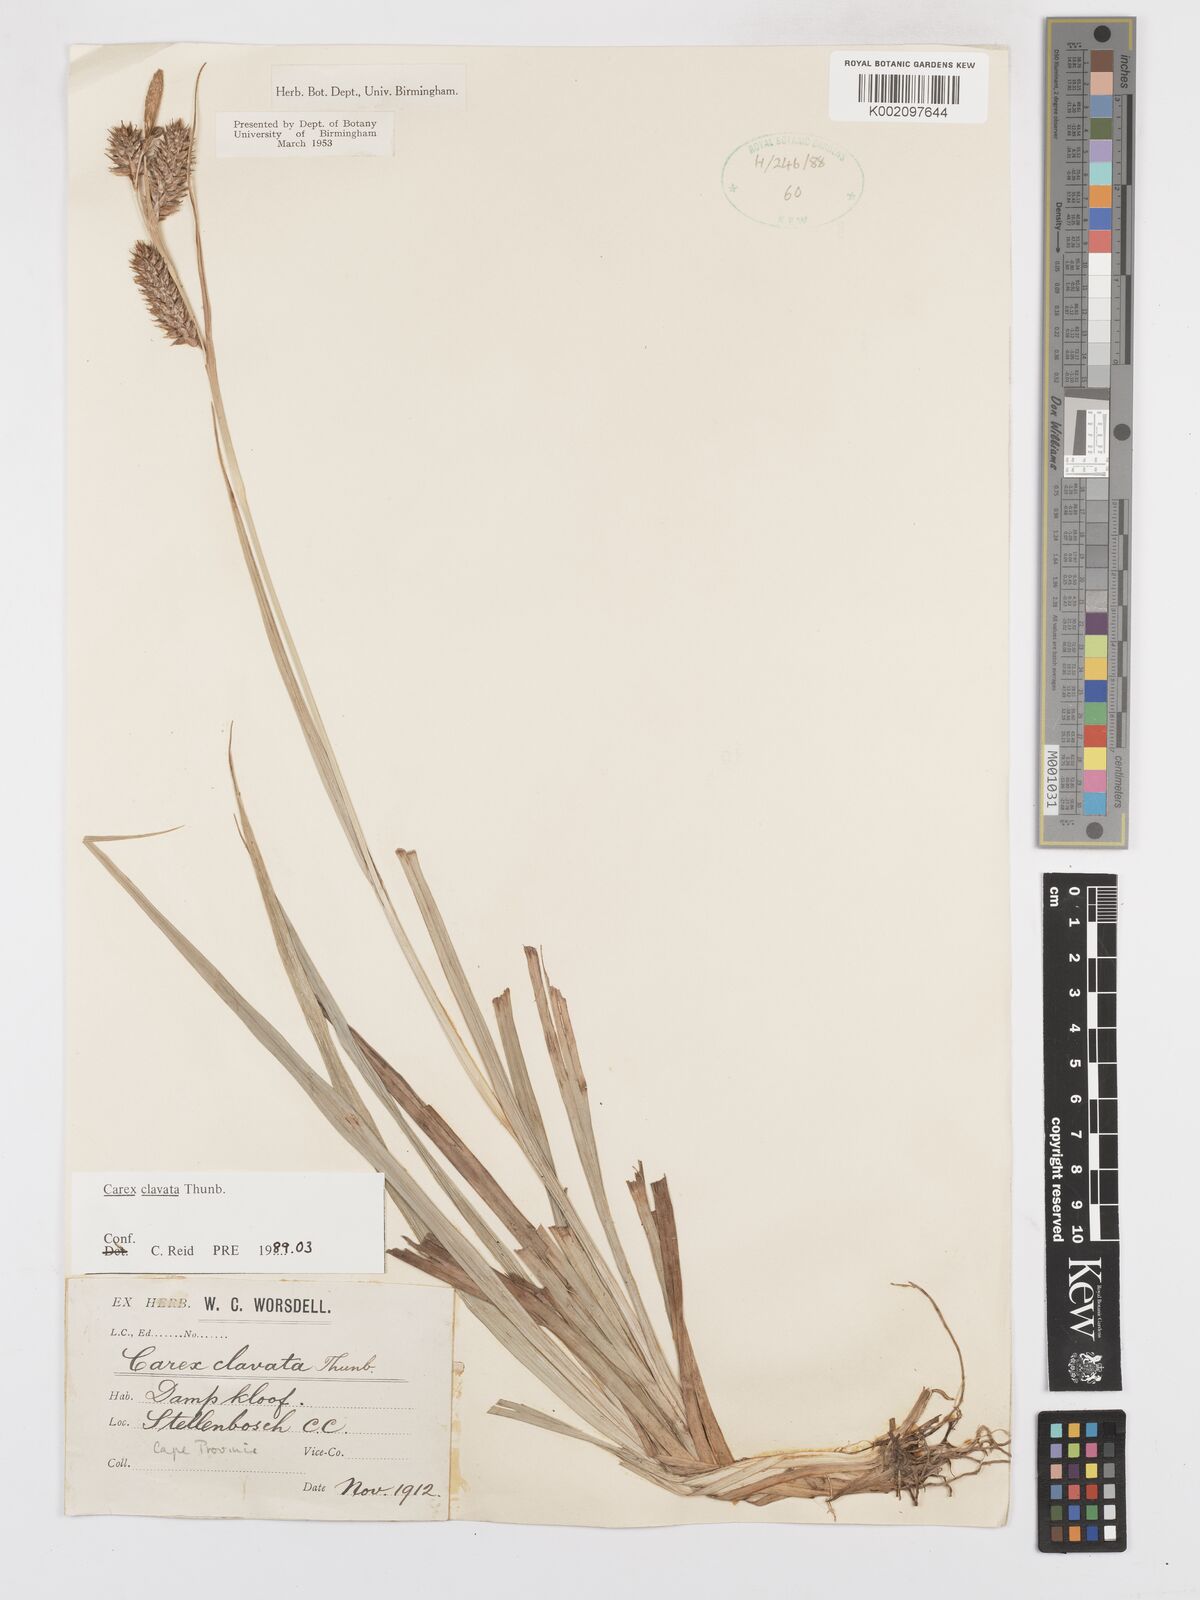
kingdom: Plantae
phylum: Tracheophyta
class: Liliopsida
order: Poales
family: Cyperaceae
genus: Carex
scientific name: Carex clavata
